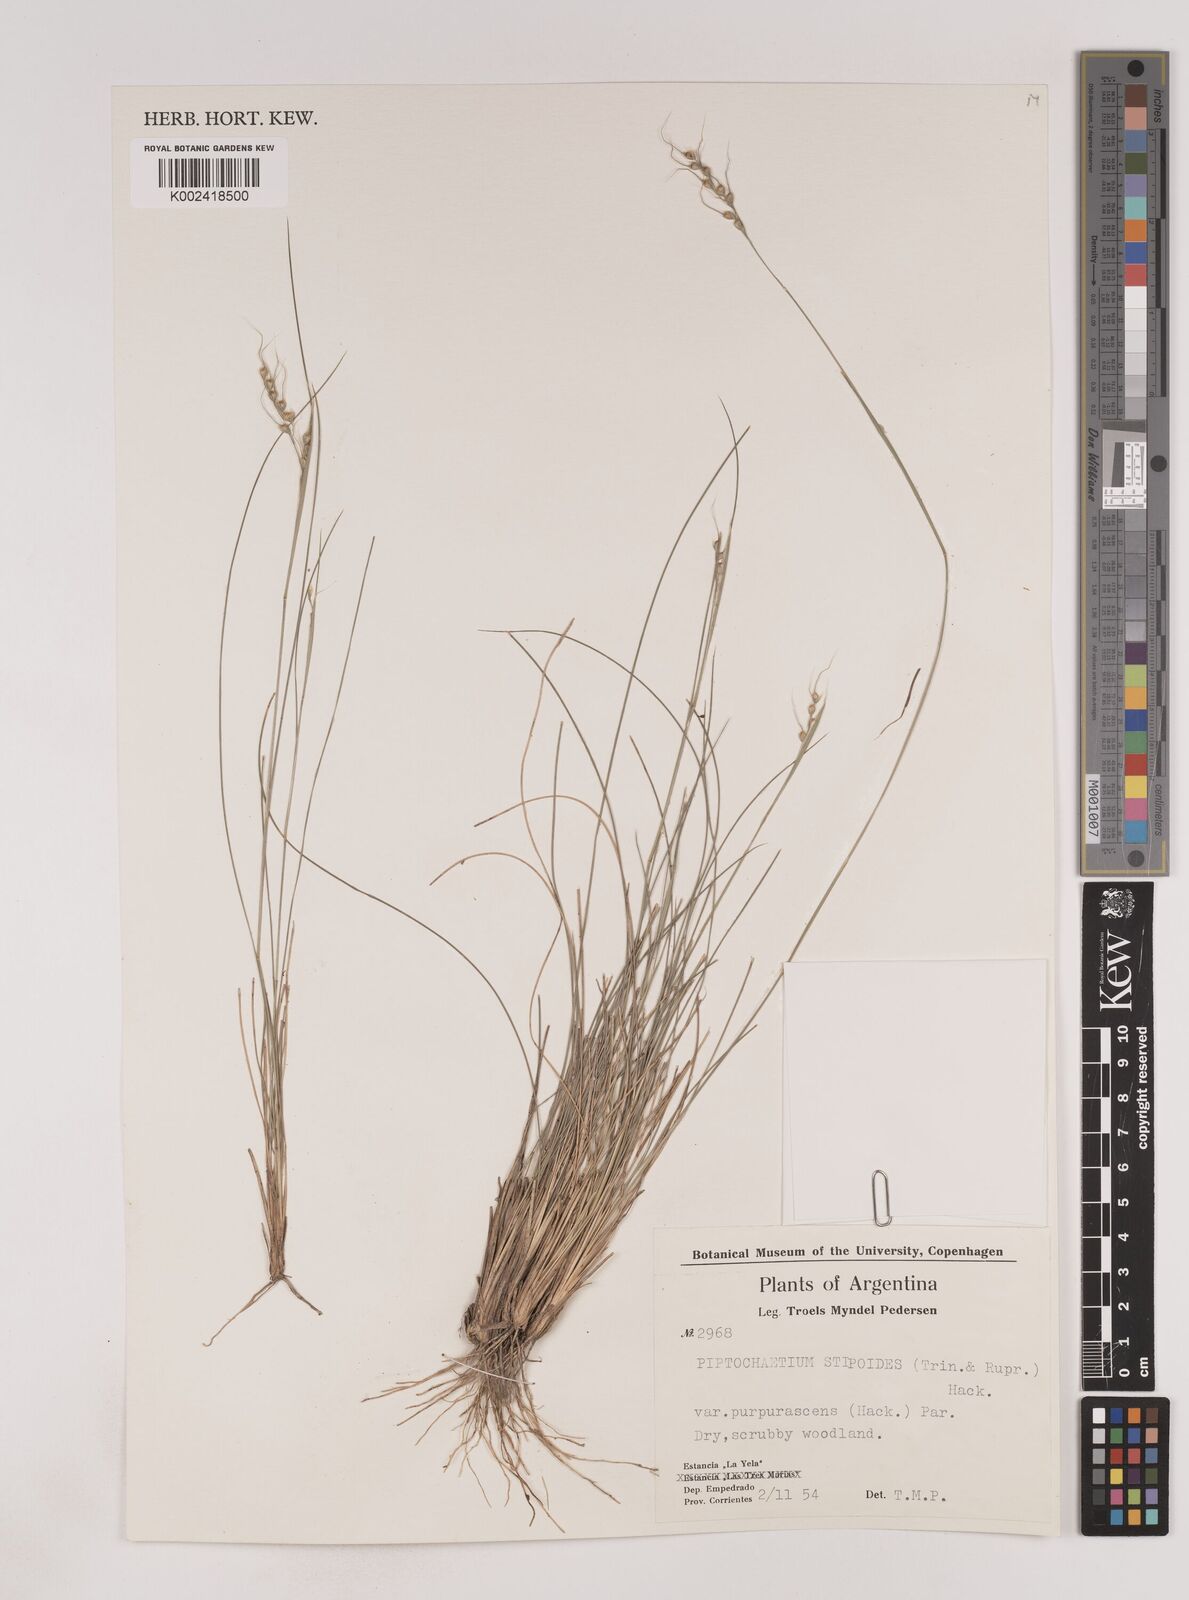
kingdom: Plantae
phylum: Tracheophyta
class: Liliopsida
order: Poales
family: Poaceae
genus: Piptochaetium
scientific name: Piptochaetium stipoides
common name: Purple speargrass
